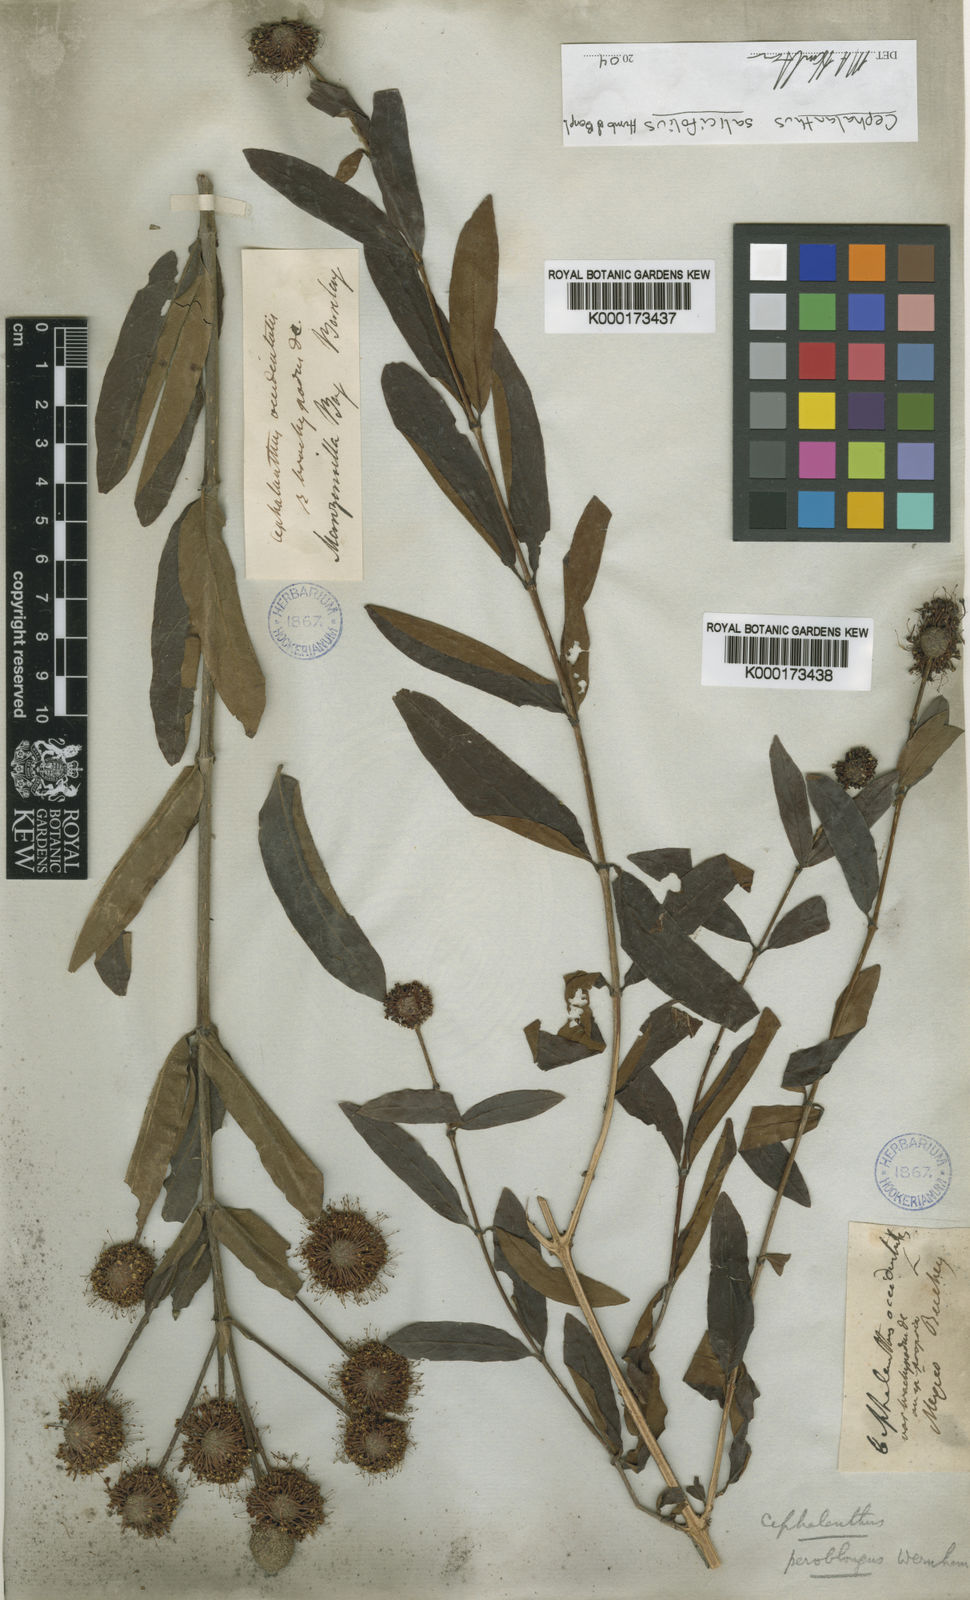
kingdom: Plantae
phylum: Tracheophyta
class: Magnoliopsida
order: Gentianales
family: Rubiaceae
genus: Cephalanthus
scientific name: Cephalanthus salicifolius
